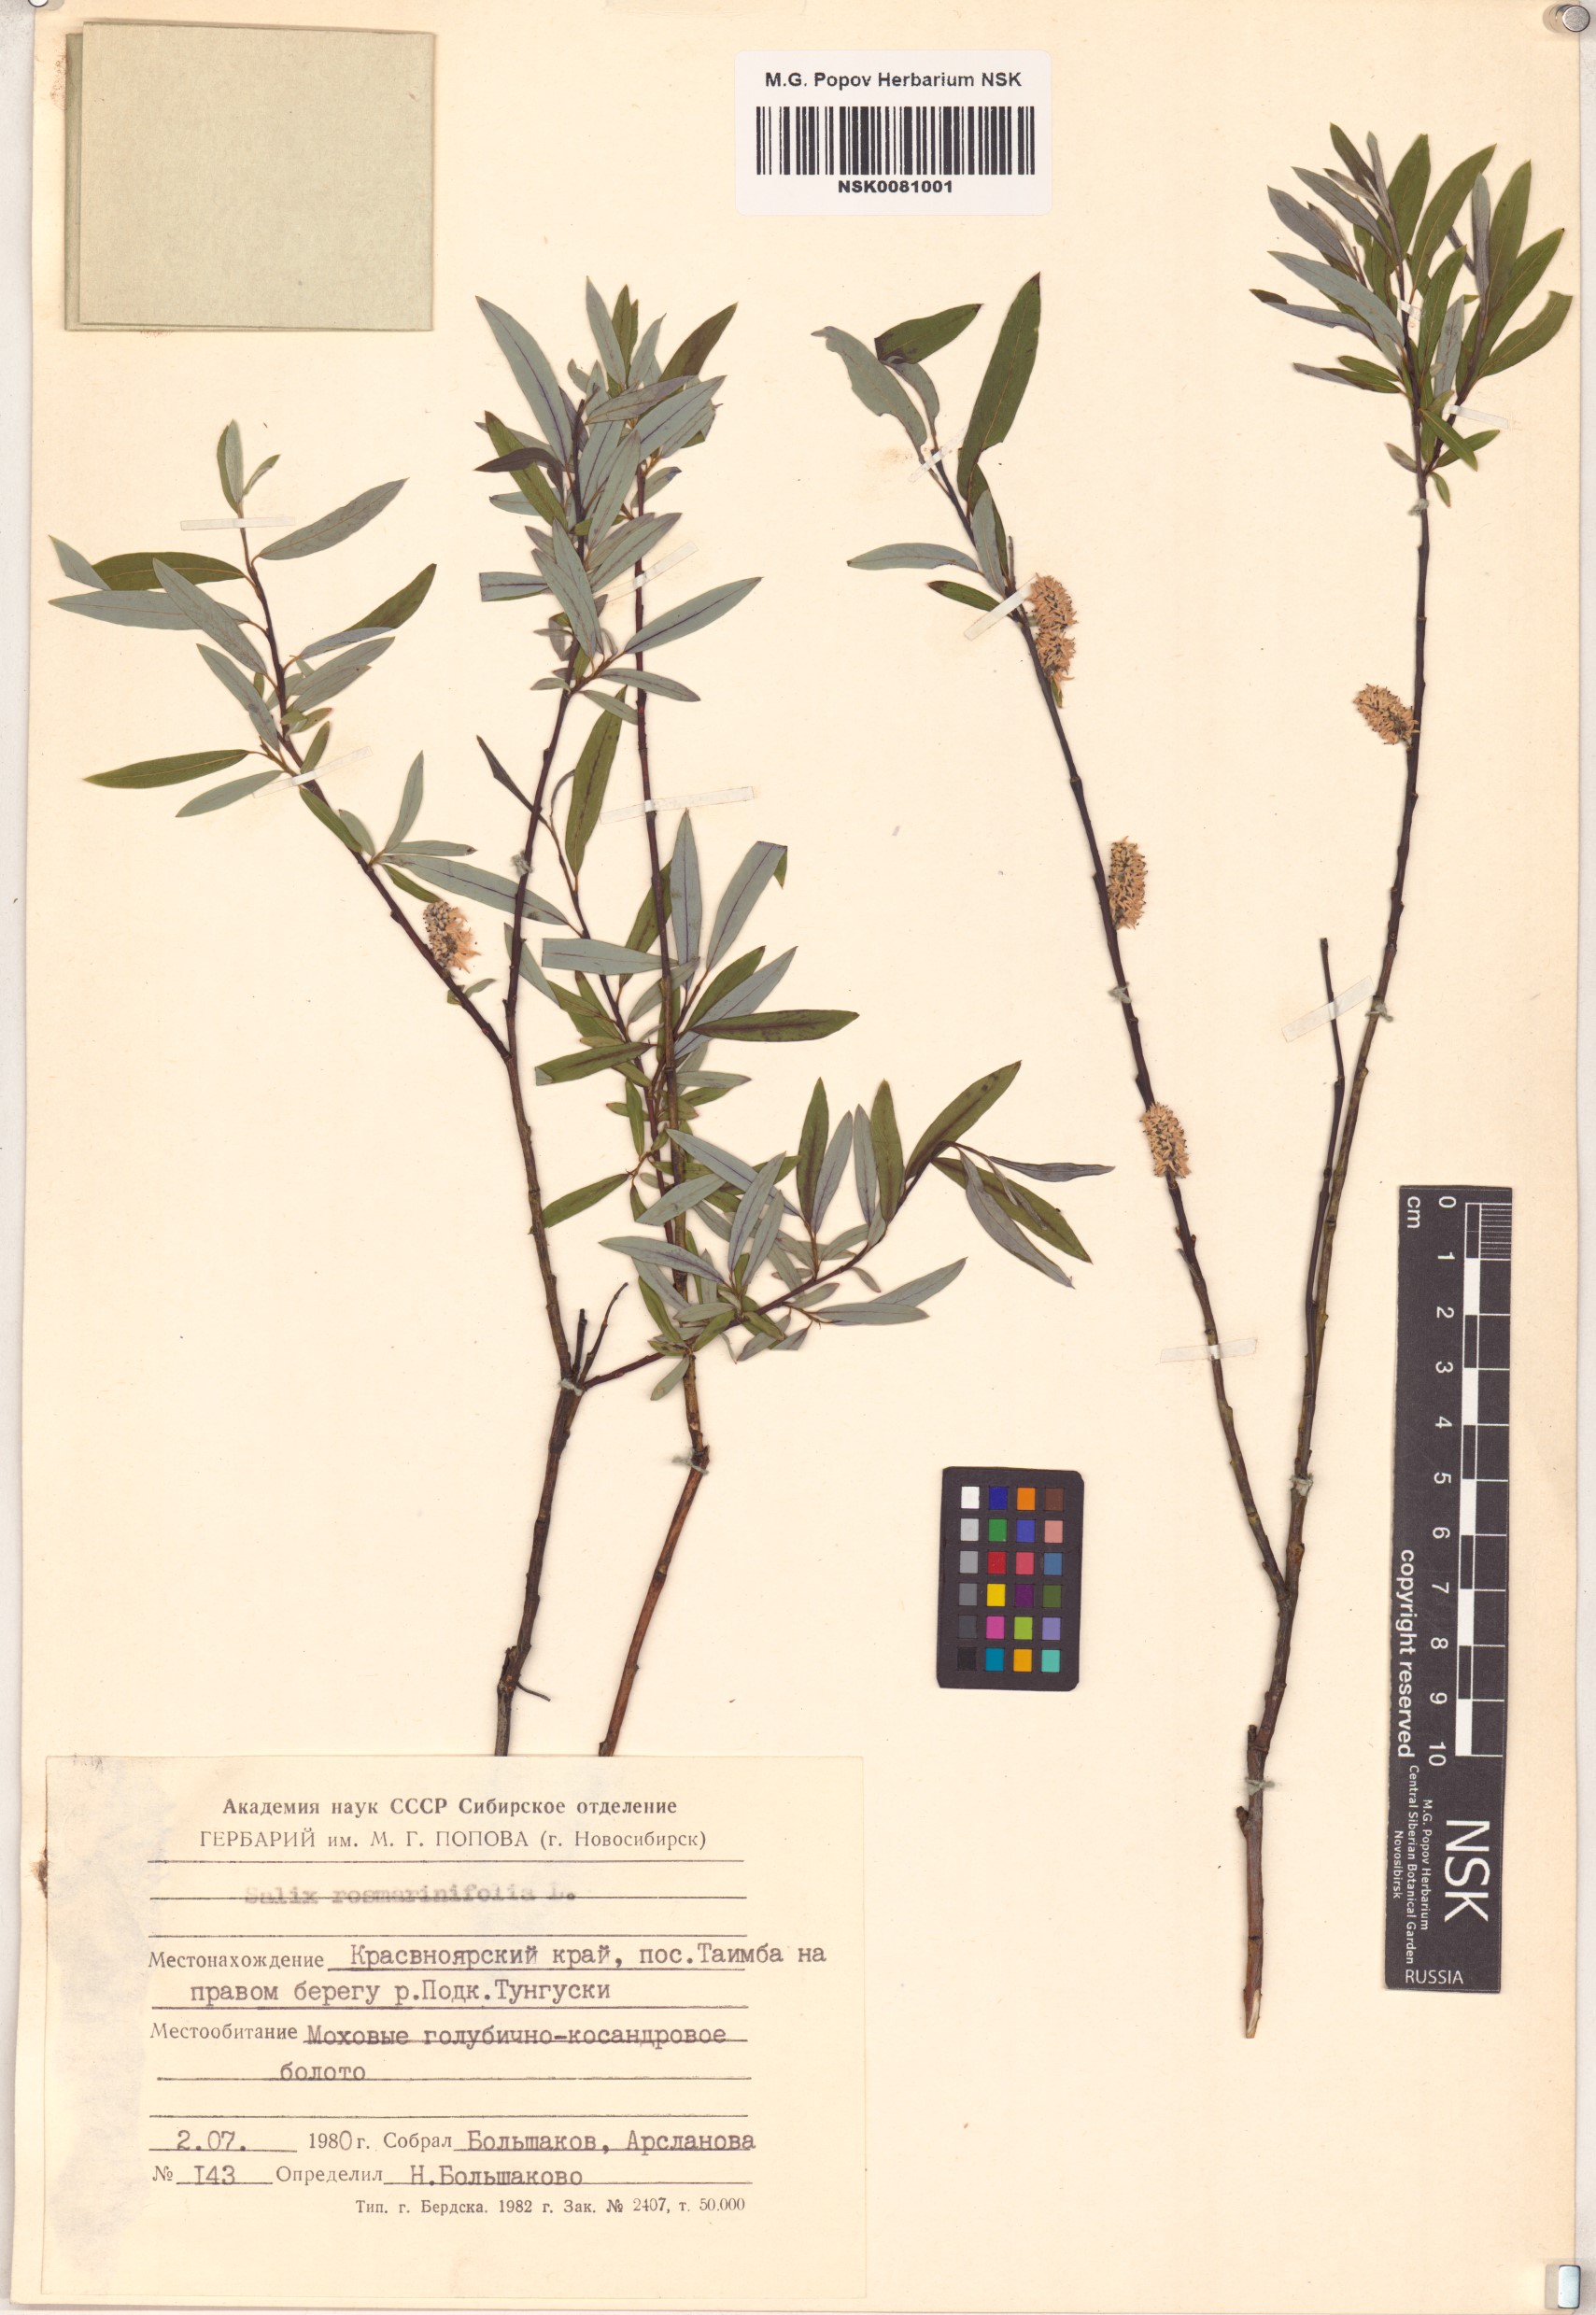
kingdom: Plantae
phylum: Tracheophyta
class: Magnoliopsida
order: Malpighiales
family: Salicaceae
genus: Salix
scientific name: Salix rosmarinifolia
